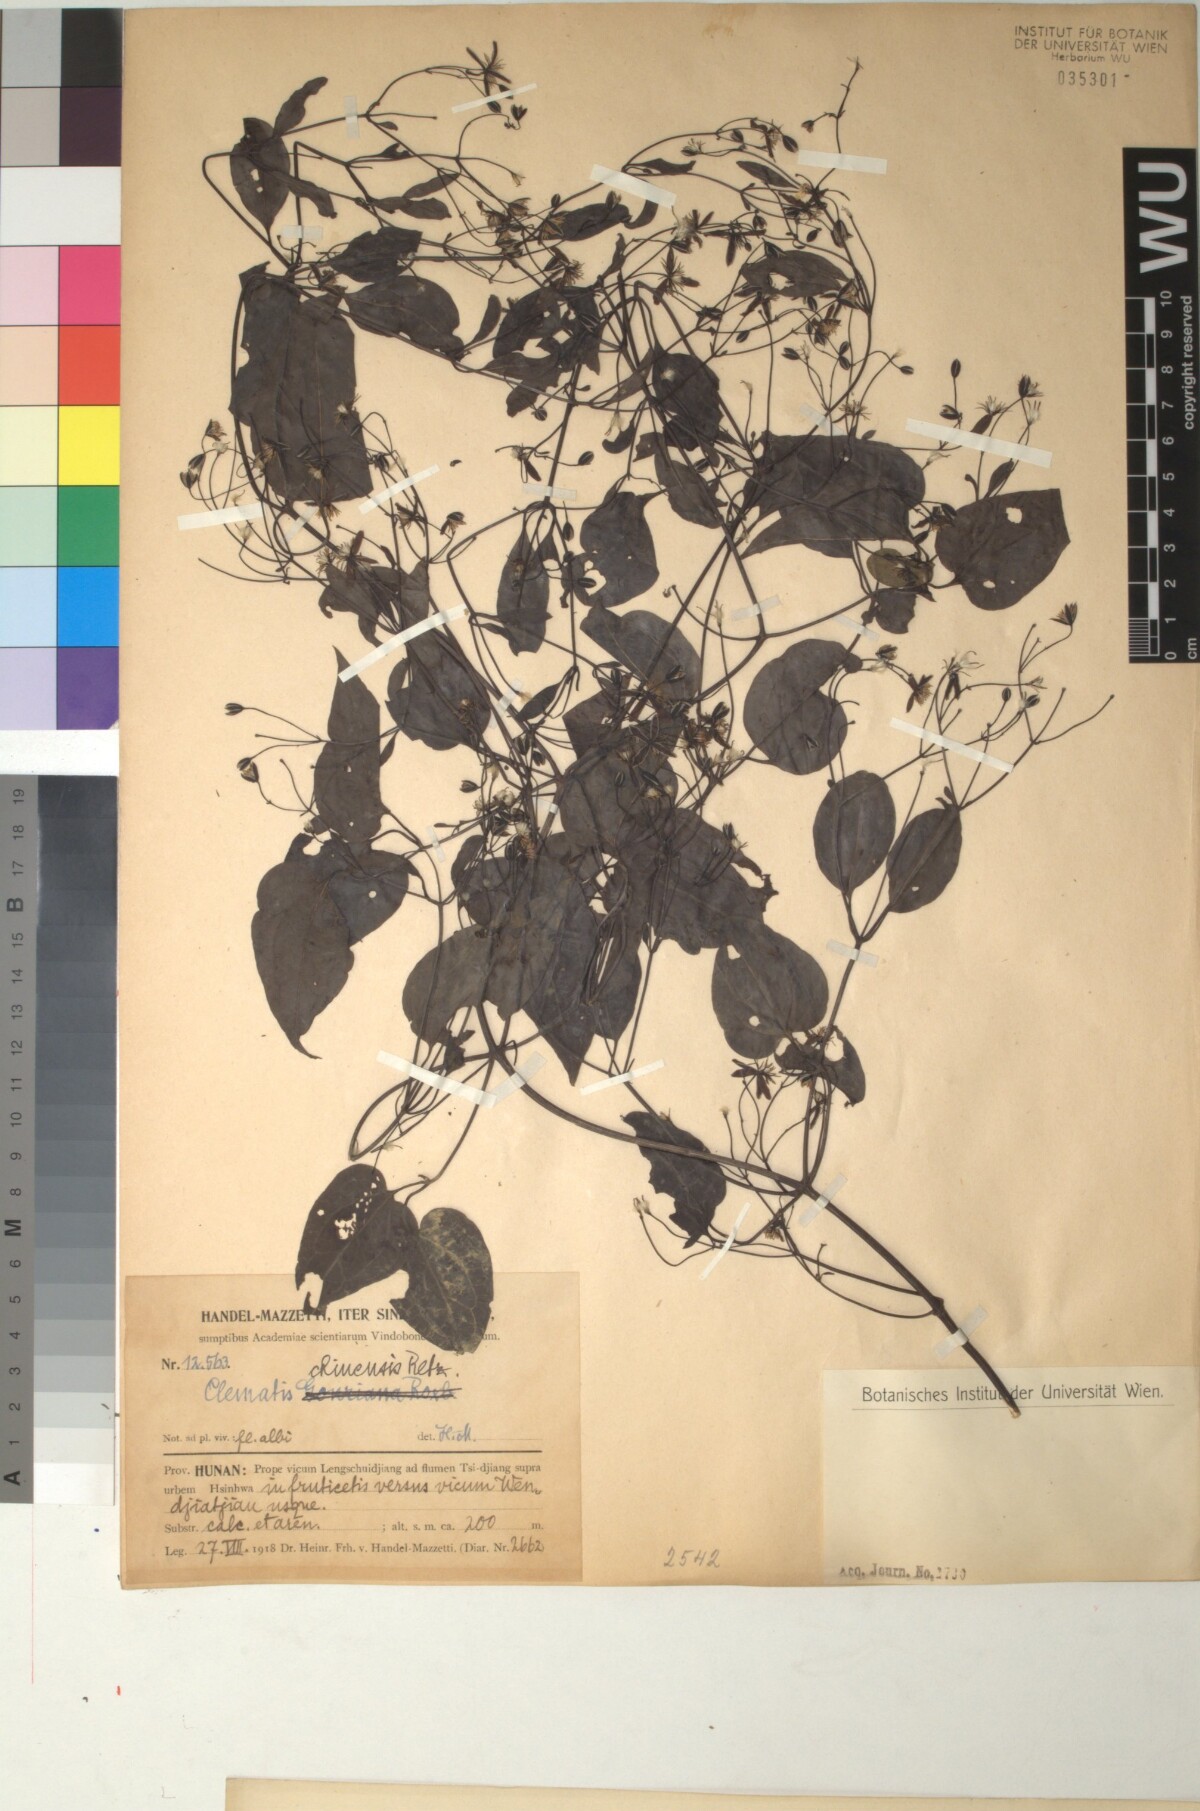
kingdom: Plantae
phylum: Tracheophyta
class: Magnoliopsida
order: Ranunculales
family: Ranunculaceae
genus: Clematis
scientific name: Clematis chinensis
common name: Chinese clematis
